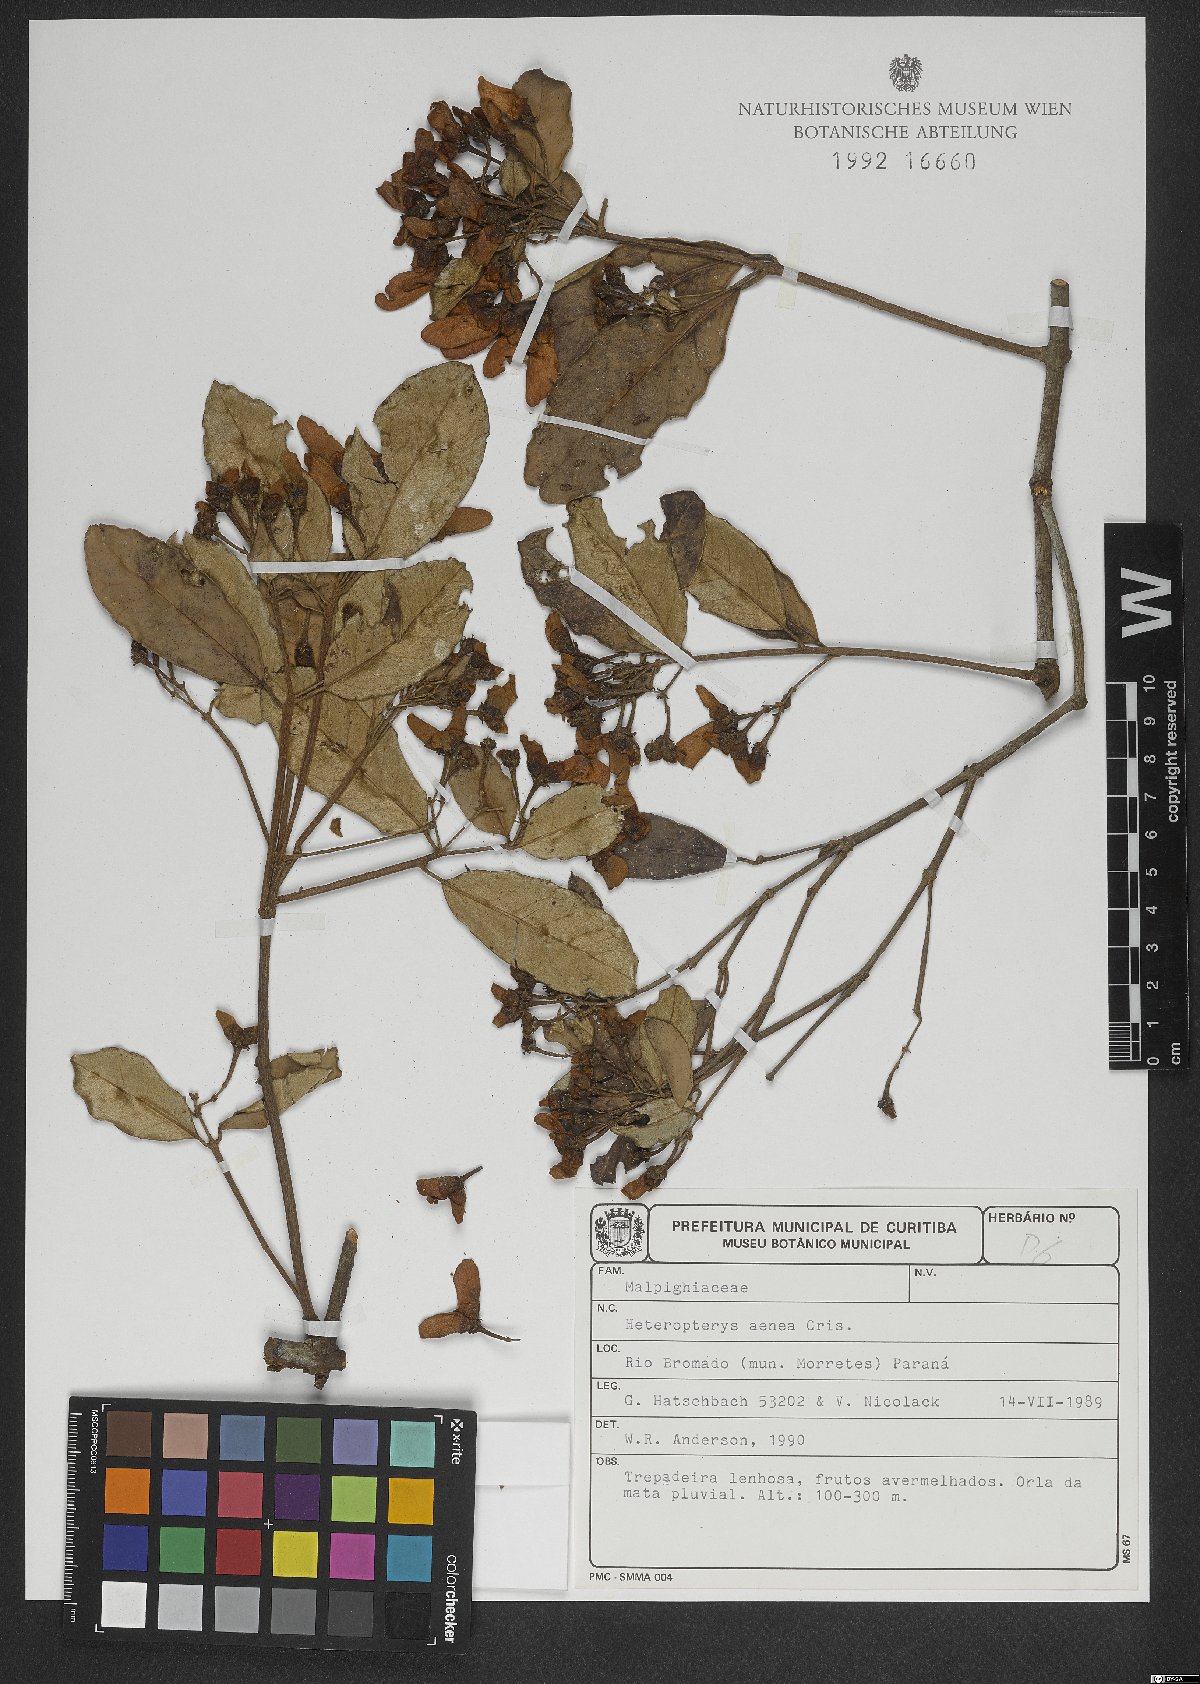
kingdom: Plantae
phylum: Tracheophyta
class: Magnoliopsida
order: Malpighiales
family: Malpighiaceae
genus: Heteropterys
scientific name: Heteropterys aenea
